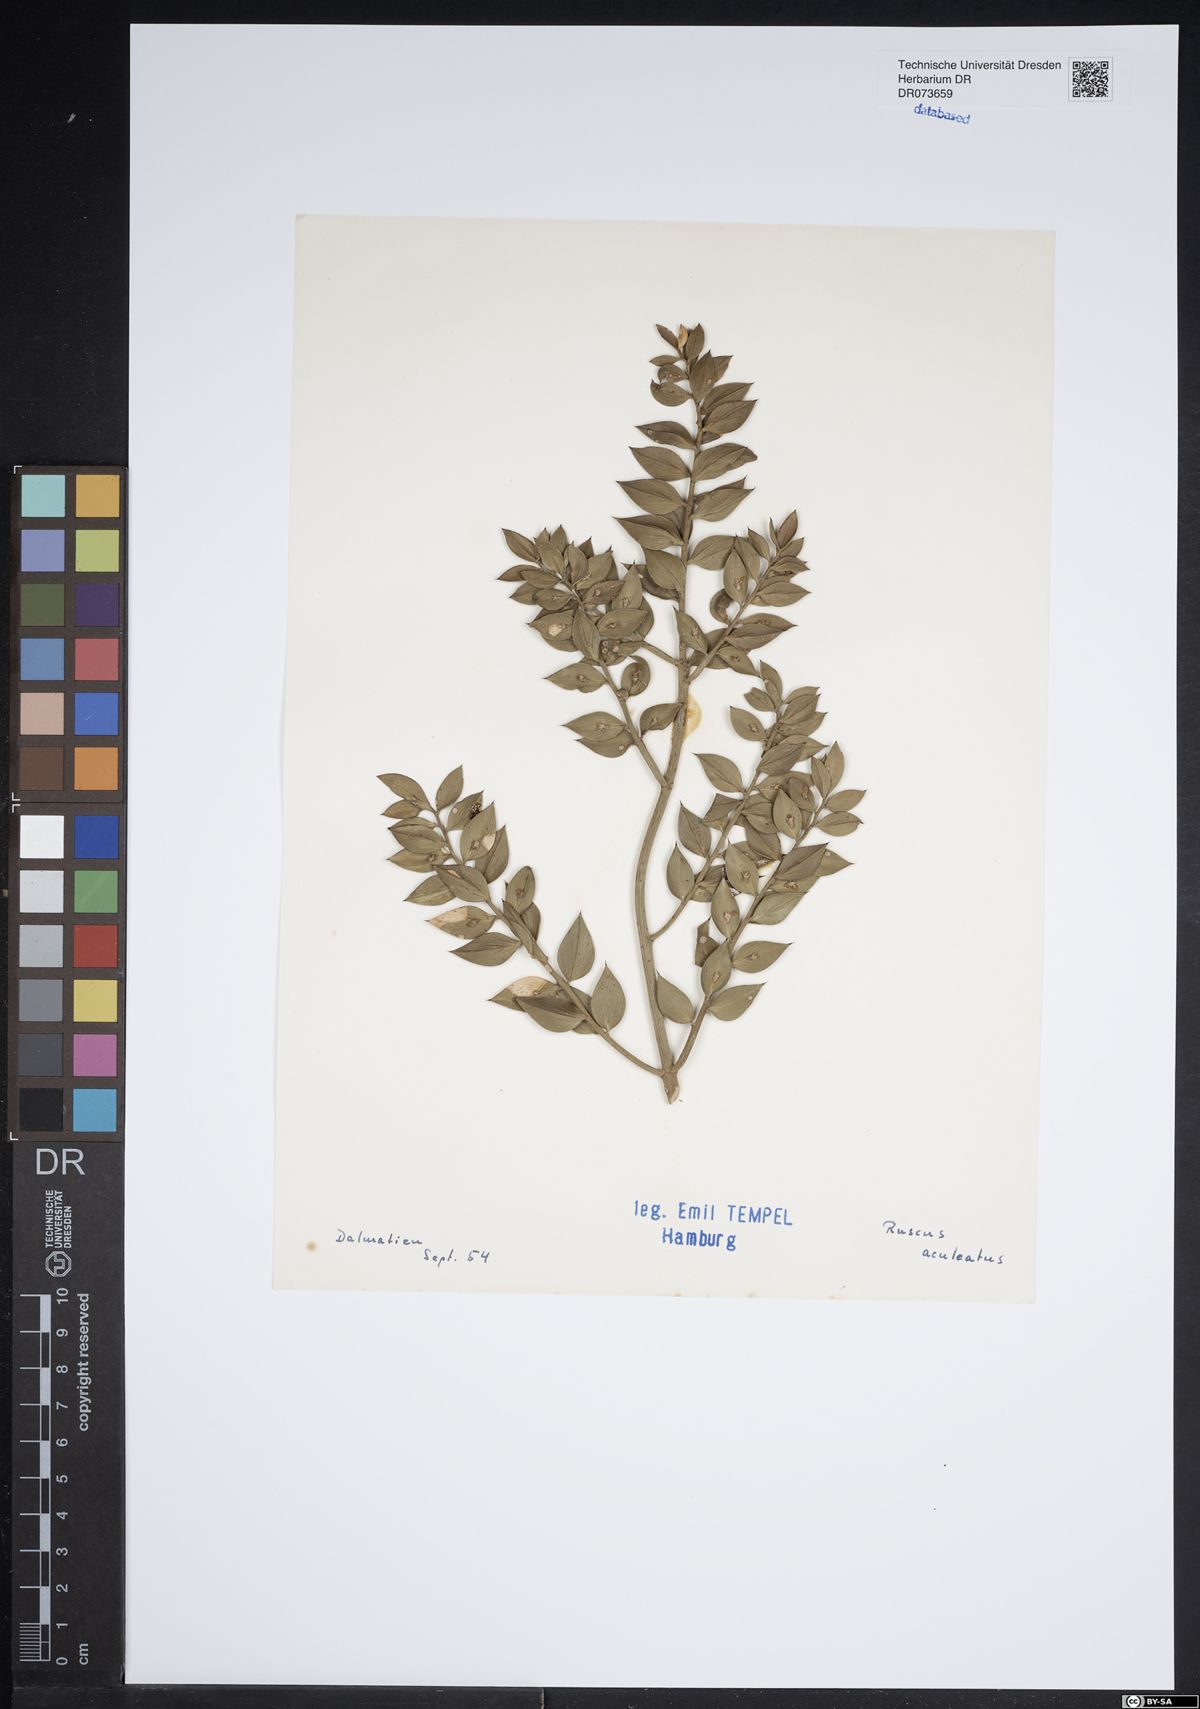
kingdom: Plantae
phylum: Tracheophyta
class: Liliopsida
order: Asparagales
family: Asparagaceae
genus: Ruscus
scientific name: Ruscus aculeatus
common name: Butcher's-broom
